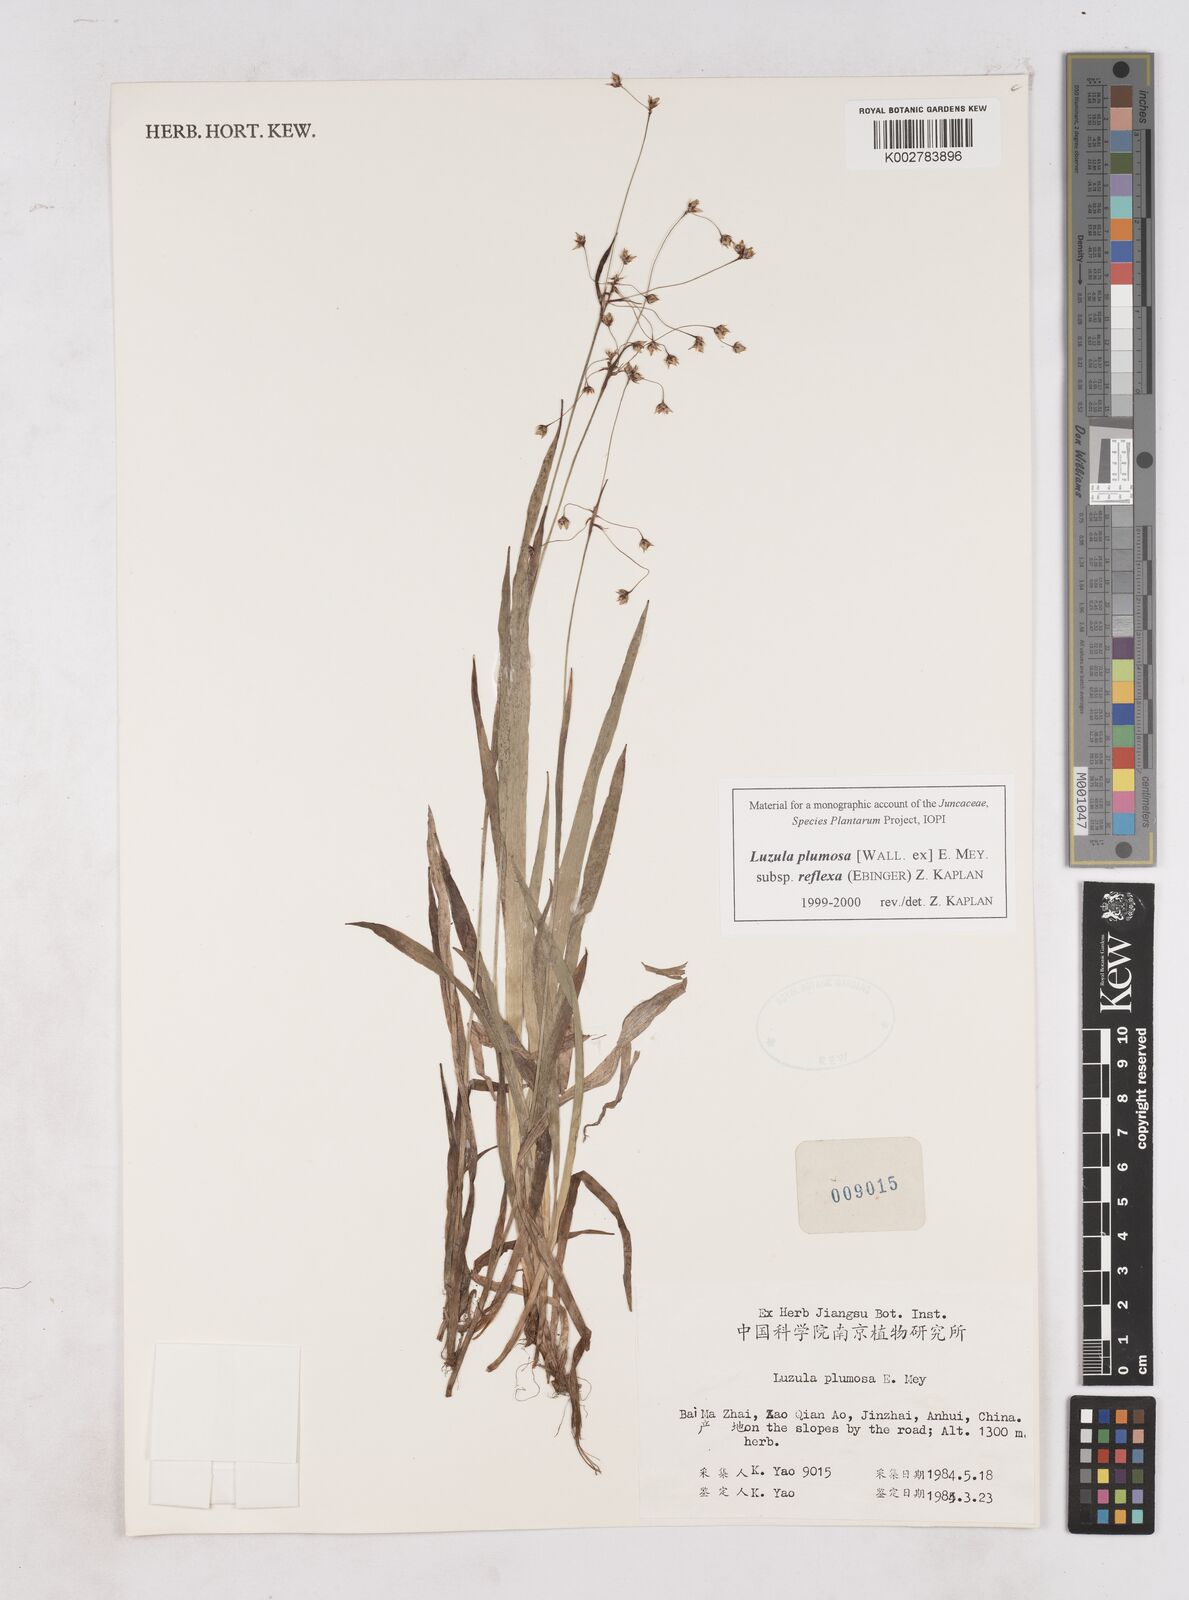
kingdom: Plantae
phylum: Tracheophyta
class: Liliopsida
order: Poales
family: Juncaceae
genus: Luzula
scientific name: Luzula plumosa
